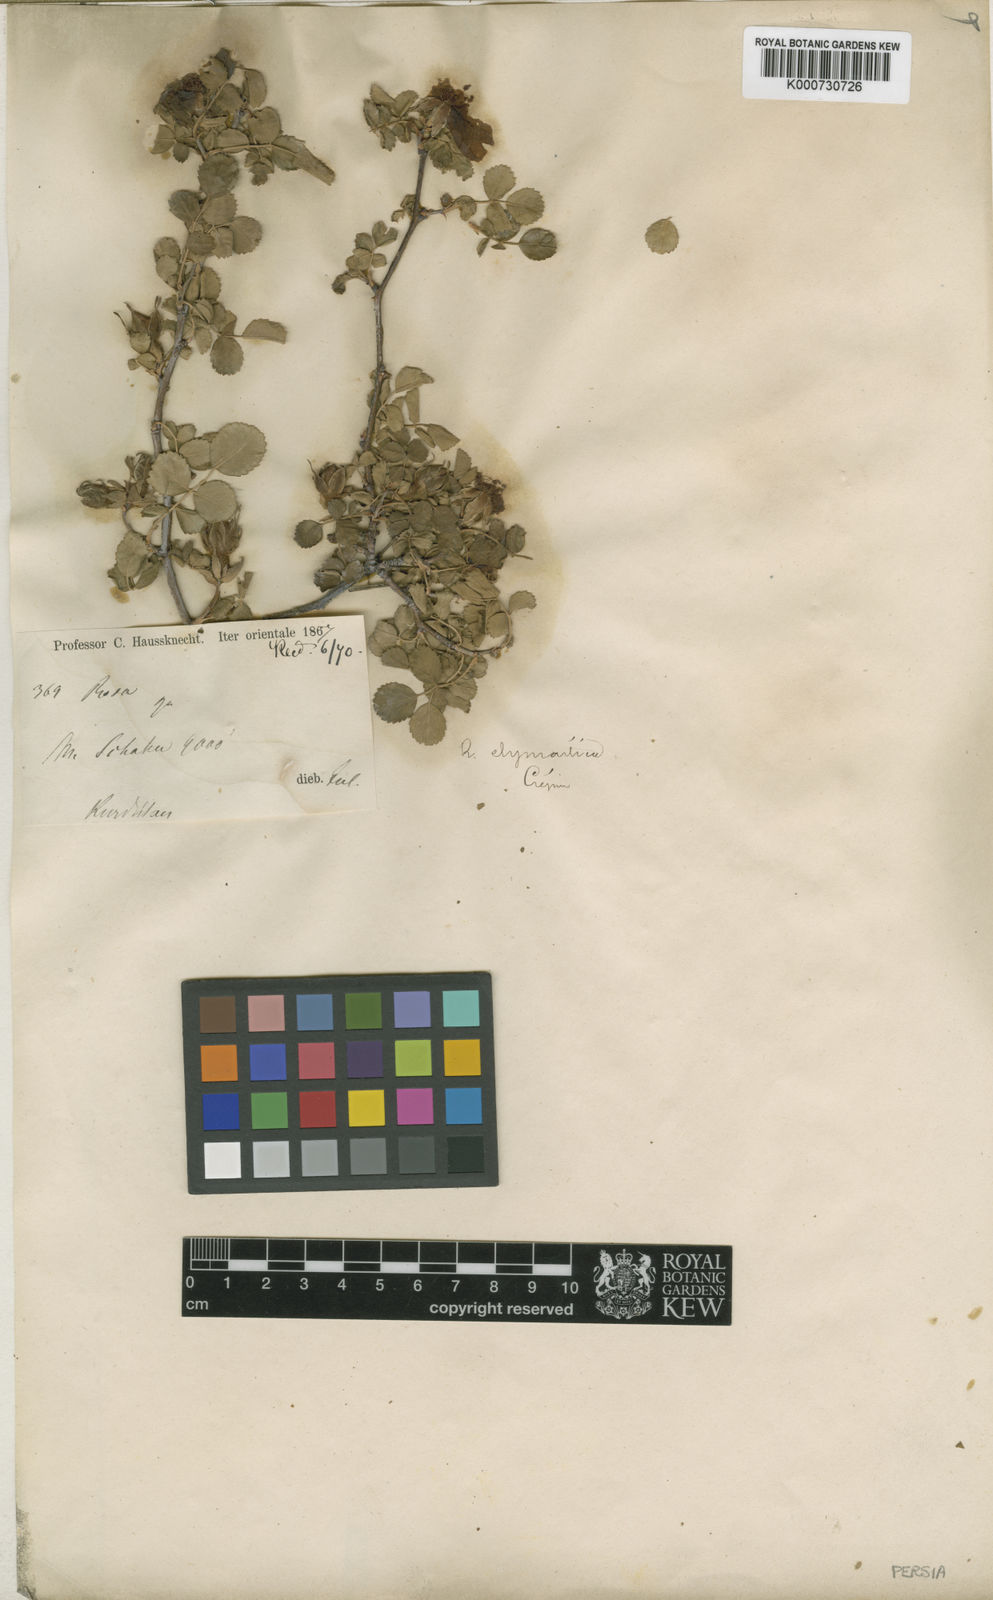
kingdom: Plantae
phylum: Tracheophyta
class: Magnoliopsida
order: Rosales
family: Rosaceae
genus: Rosa
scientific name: Rosa elymaitica
